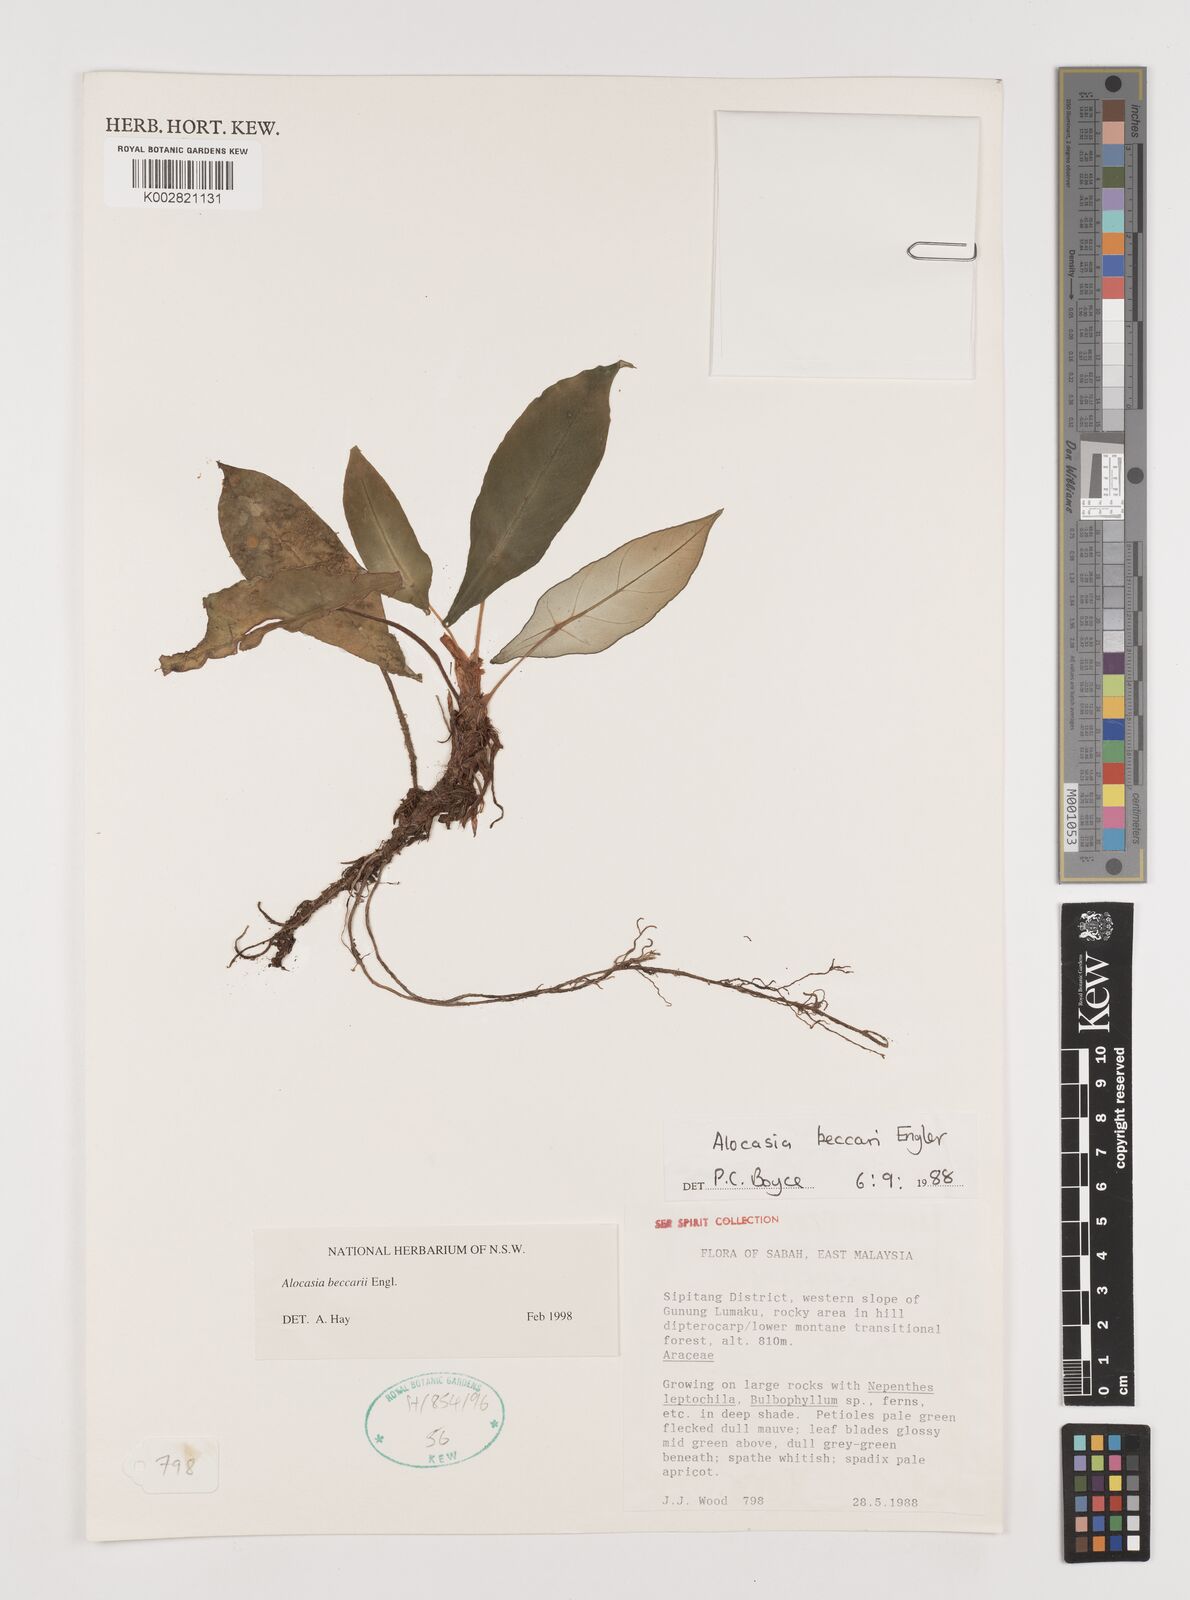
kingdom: Plantae
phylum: Tracheophyta
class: Liliopsida
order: Alismatales
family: Araceae
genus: Alocasia
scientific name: Alocasia beccarii
